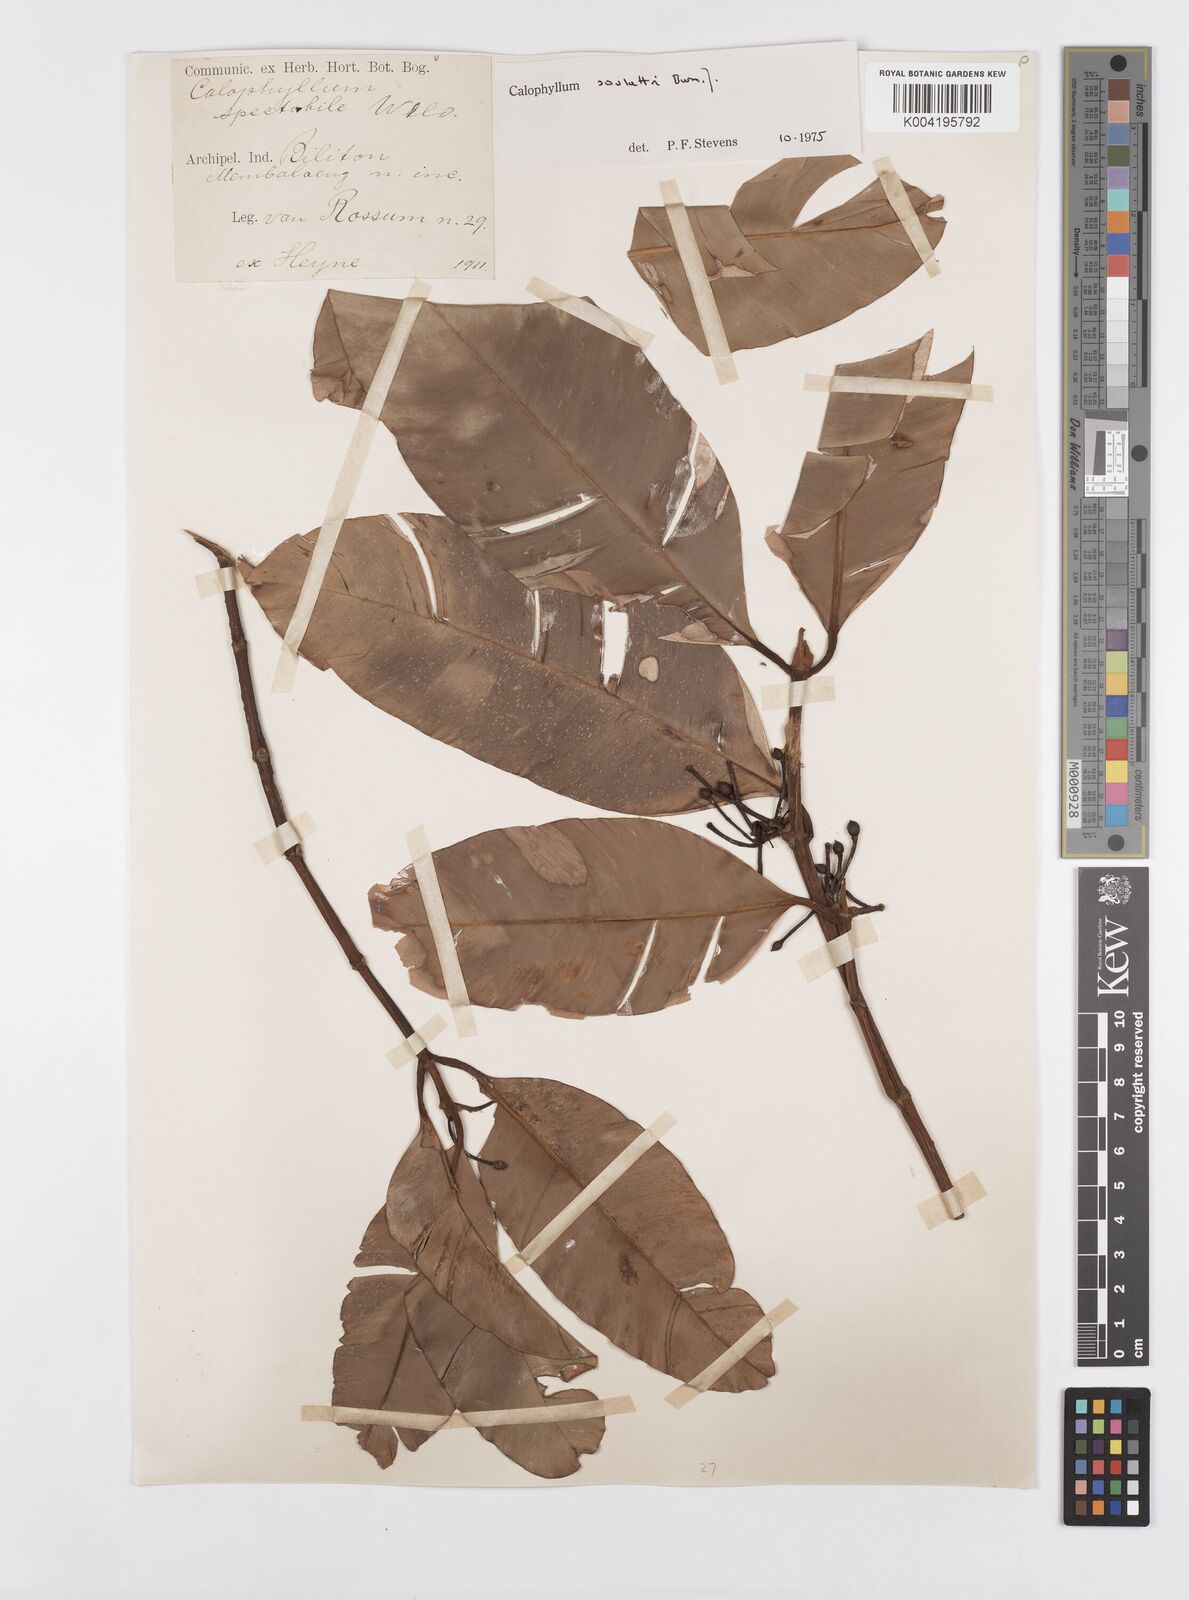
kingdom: Plantae
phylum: Tracheophyta
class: Magnoliopsida
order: Malpighiales
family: Calophyllaceae
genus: Calophyllum
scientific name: Calophyllum soulattri
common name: Bitangoor boonot
